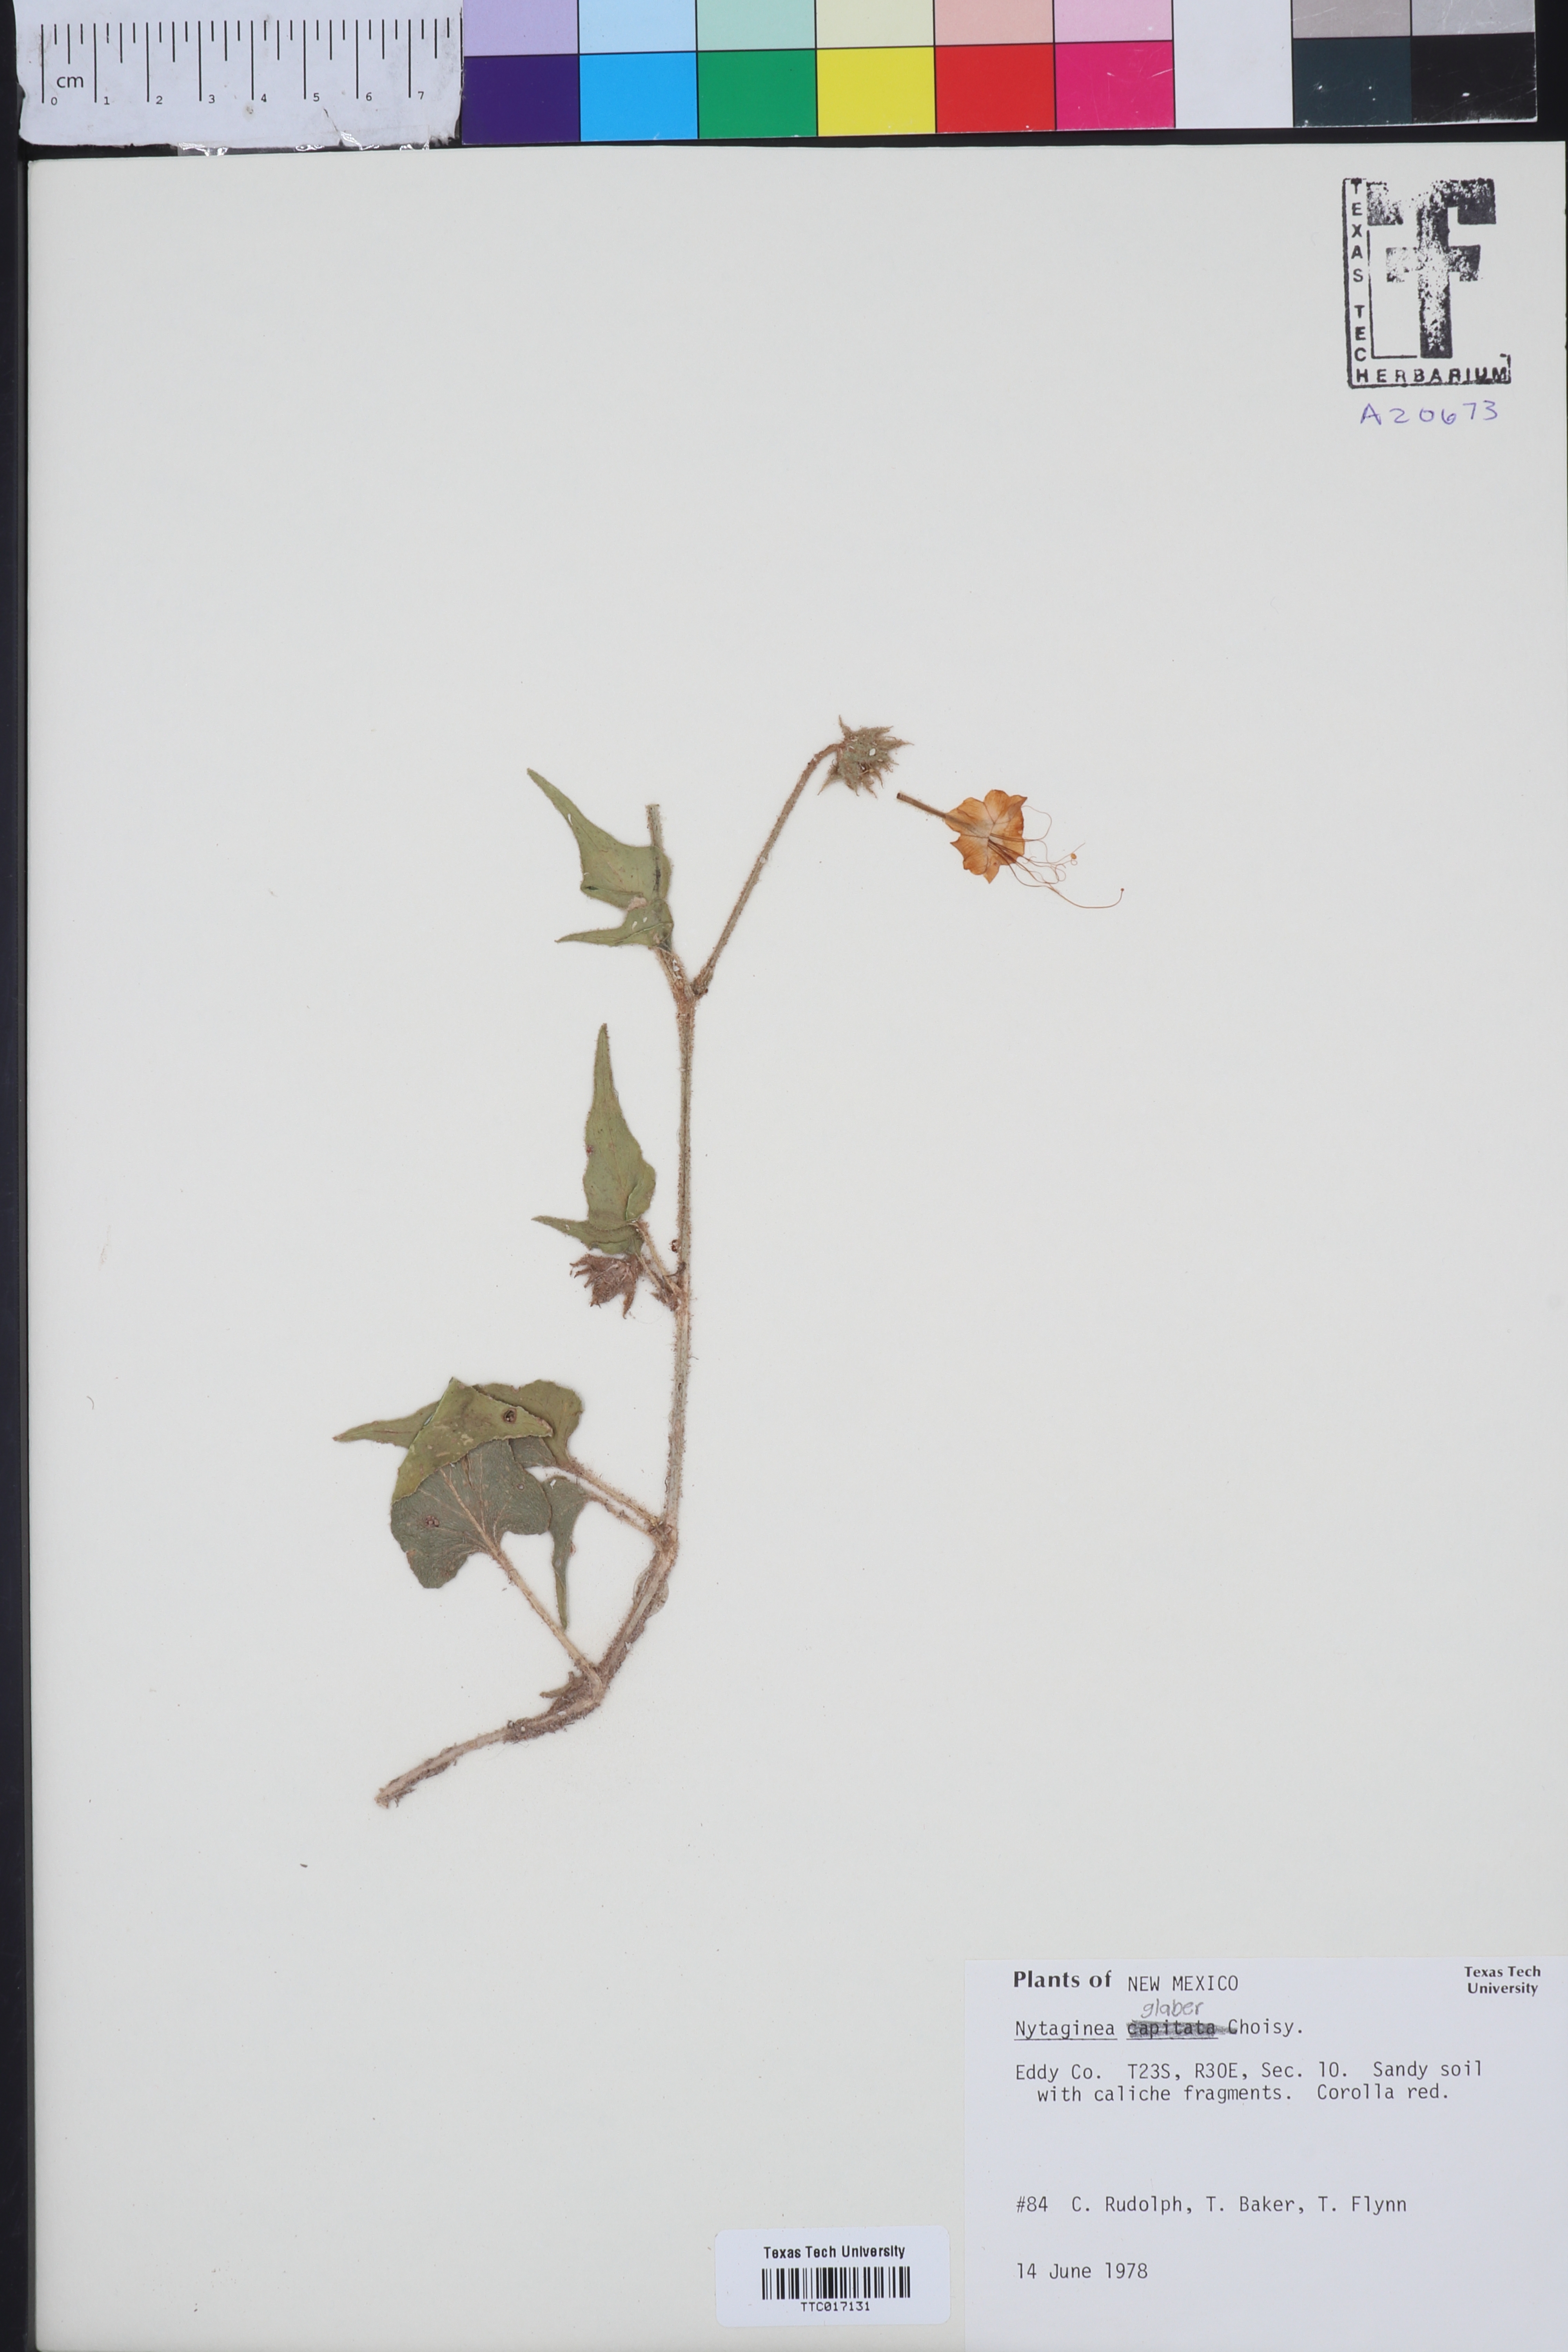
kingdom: Plantae
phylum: Tracheophyta
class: Magnoliopsida
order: Caryophyllales
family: Nyctaginaceae
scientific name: Nyctaginaceae
